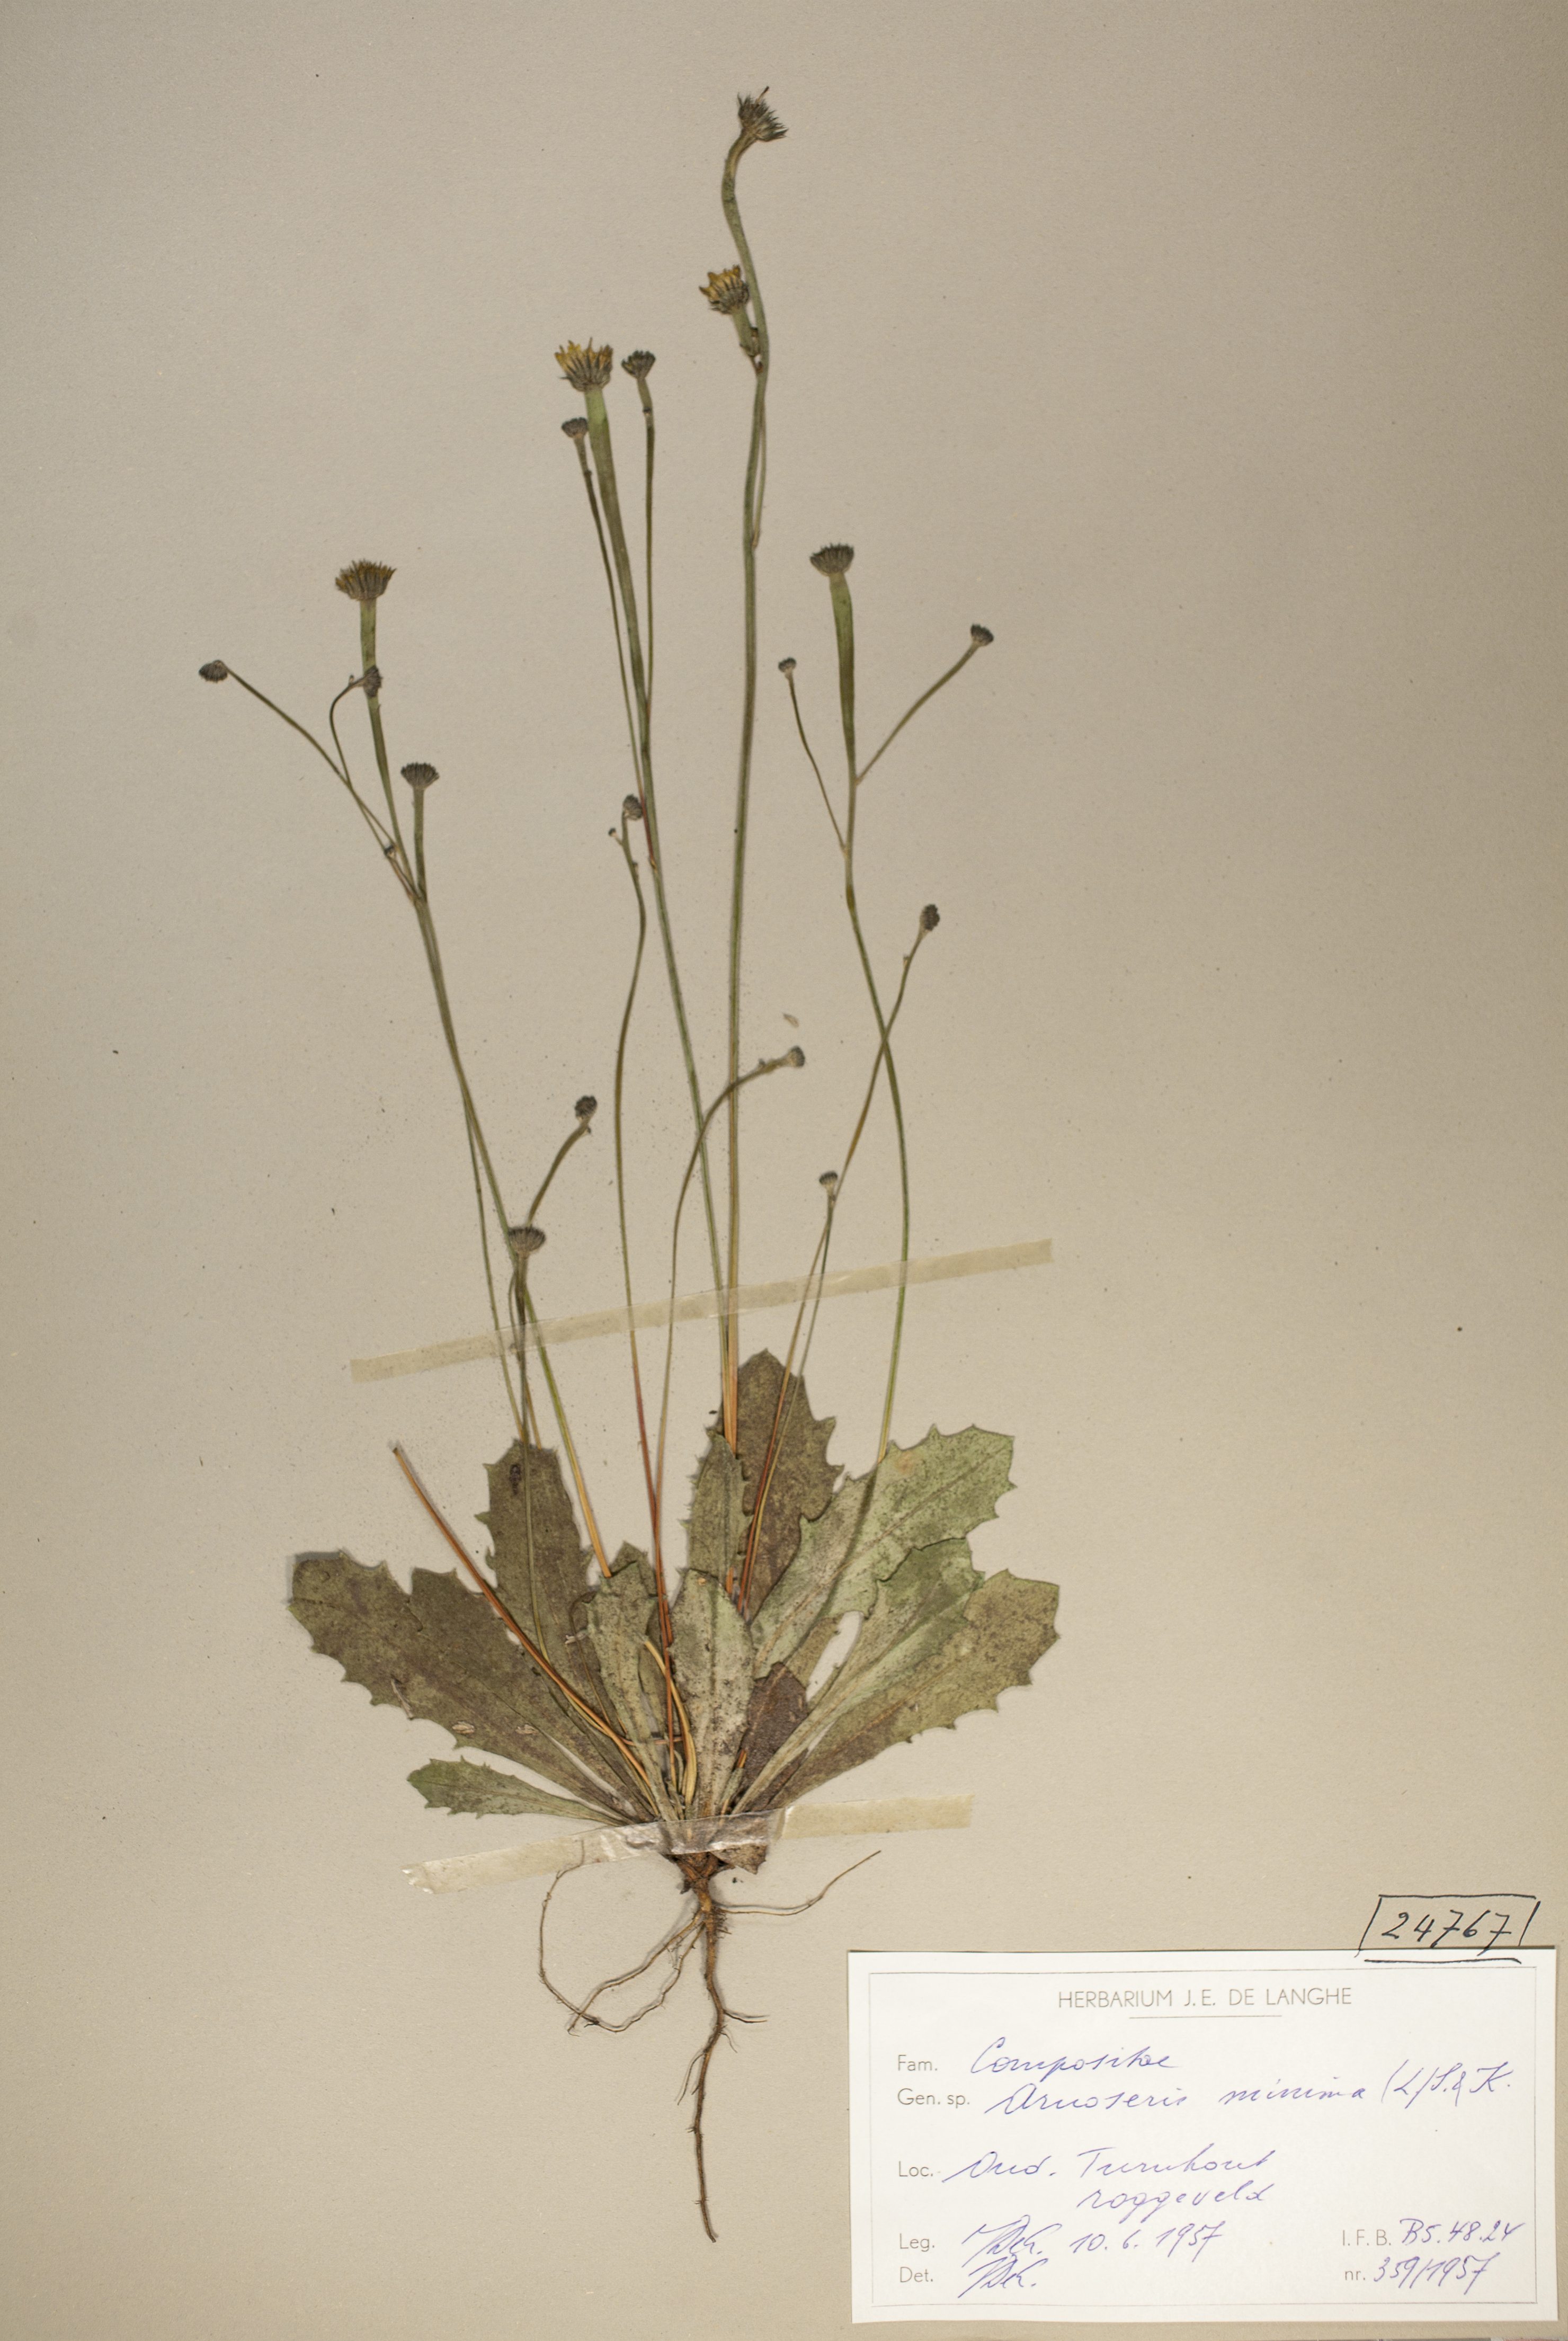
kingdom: Plantae
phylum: Tracheophyta
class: Magnoliopsida
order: Asterales
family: Asteraceae
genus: Arnoseris
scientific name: Arnoseris minima
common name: Lamb's succory
